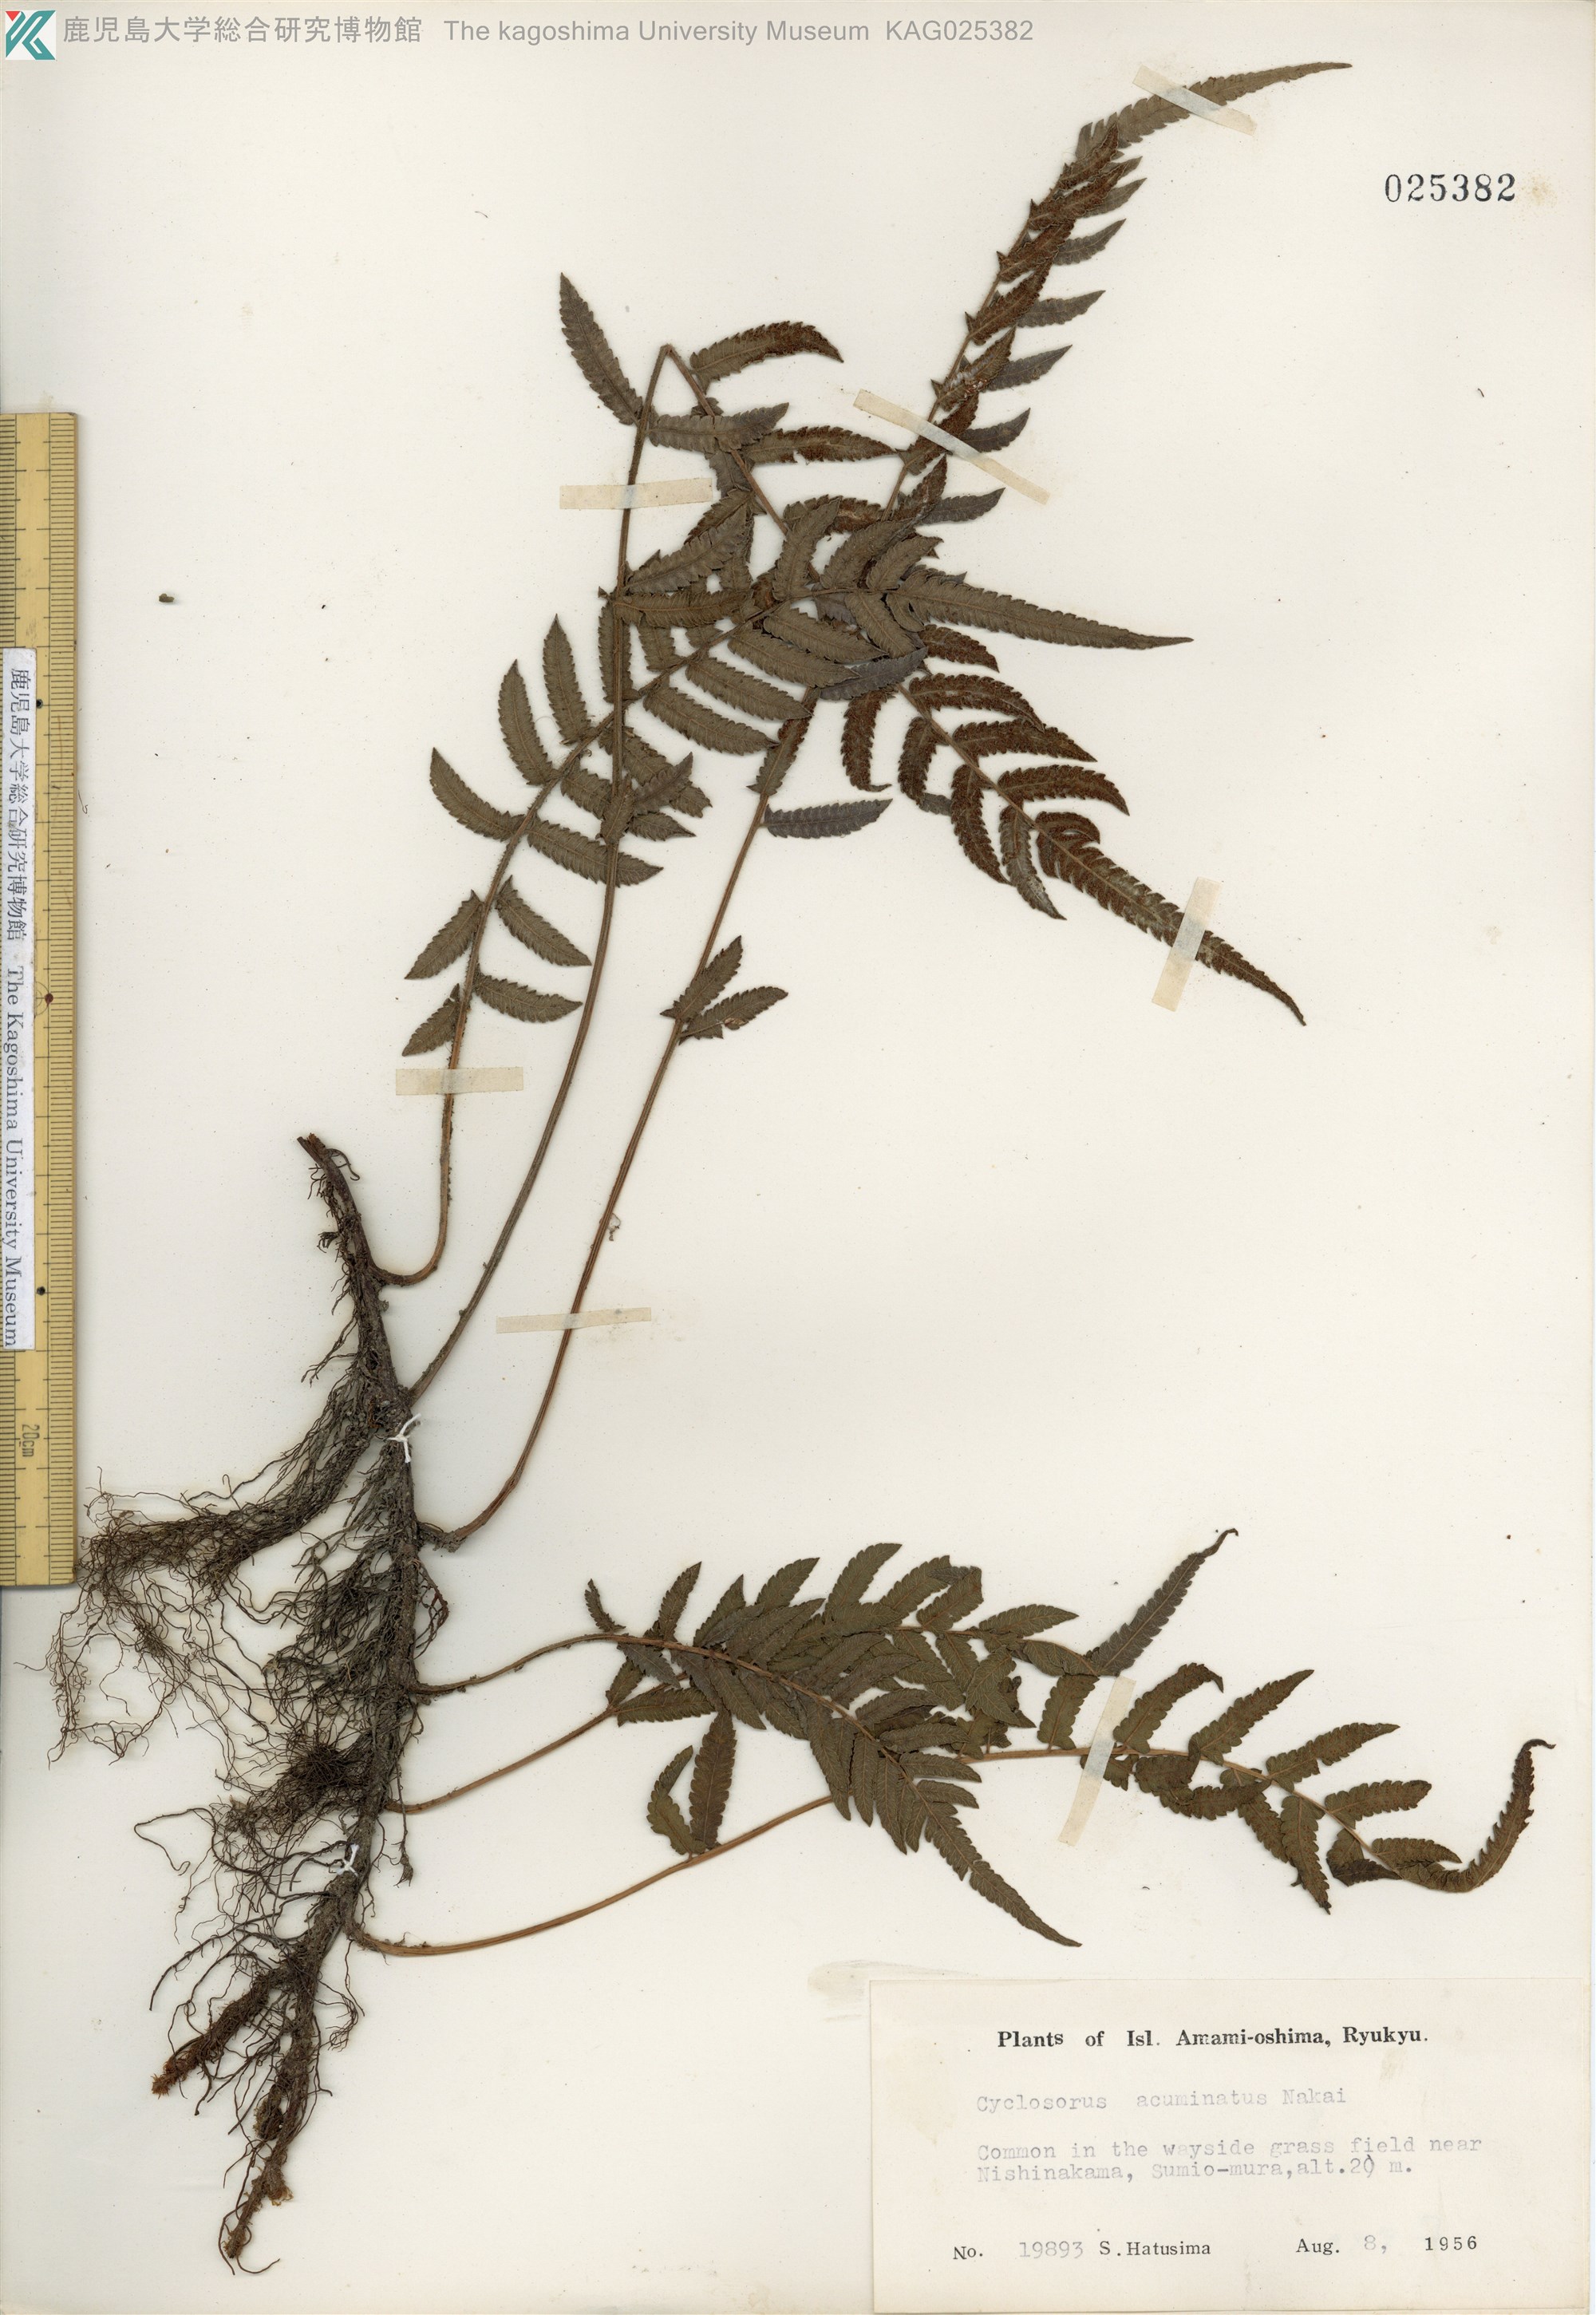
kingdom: Plantae
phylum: Tracheophyta
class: Polypodiopsida
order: Polypodiales
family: Thelypteridaceae
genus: Christella
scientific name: Christella acuminata
